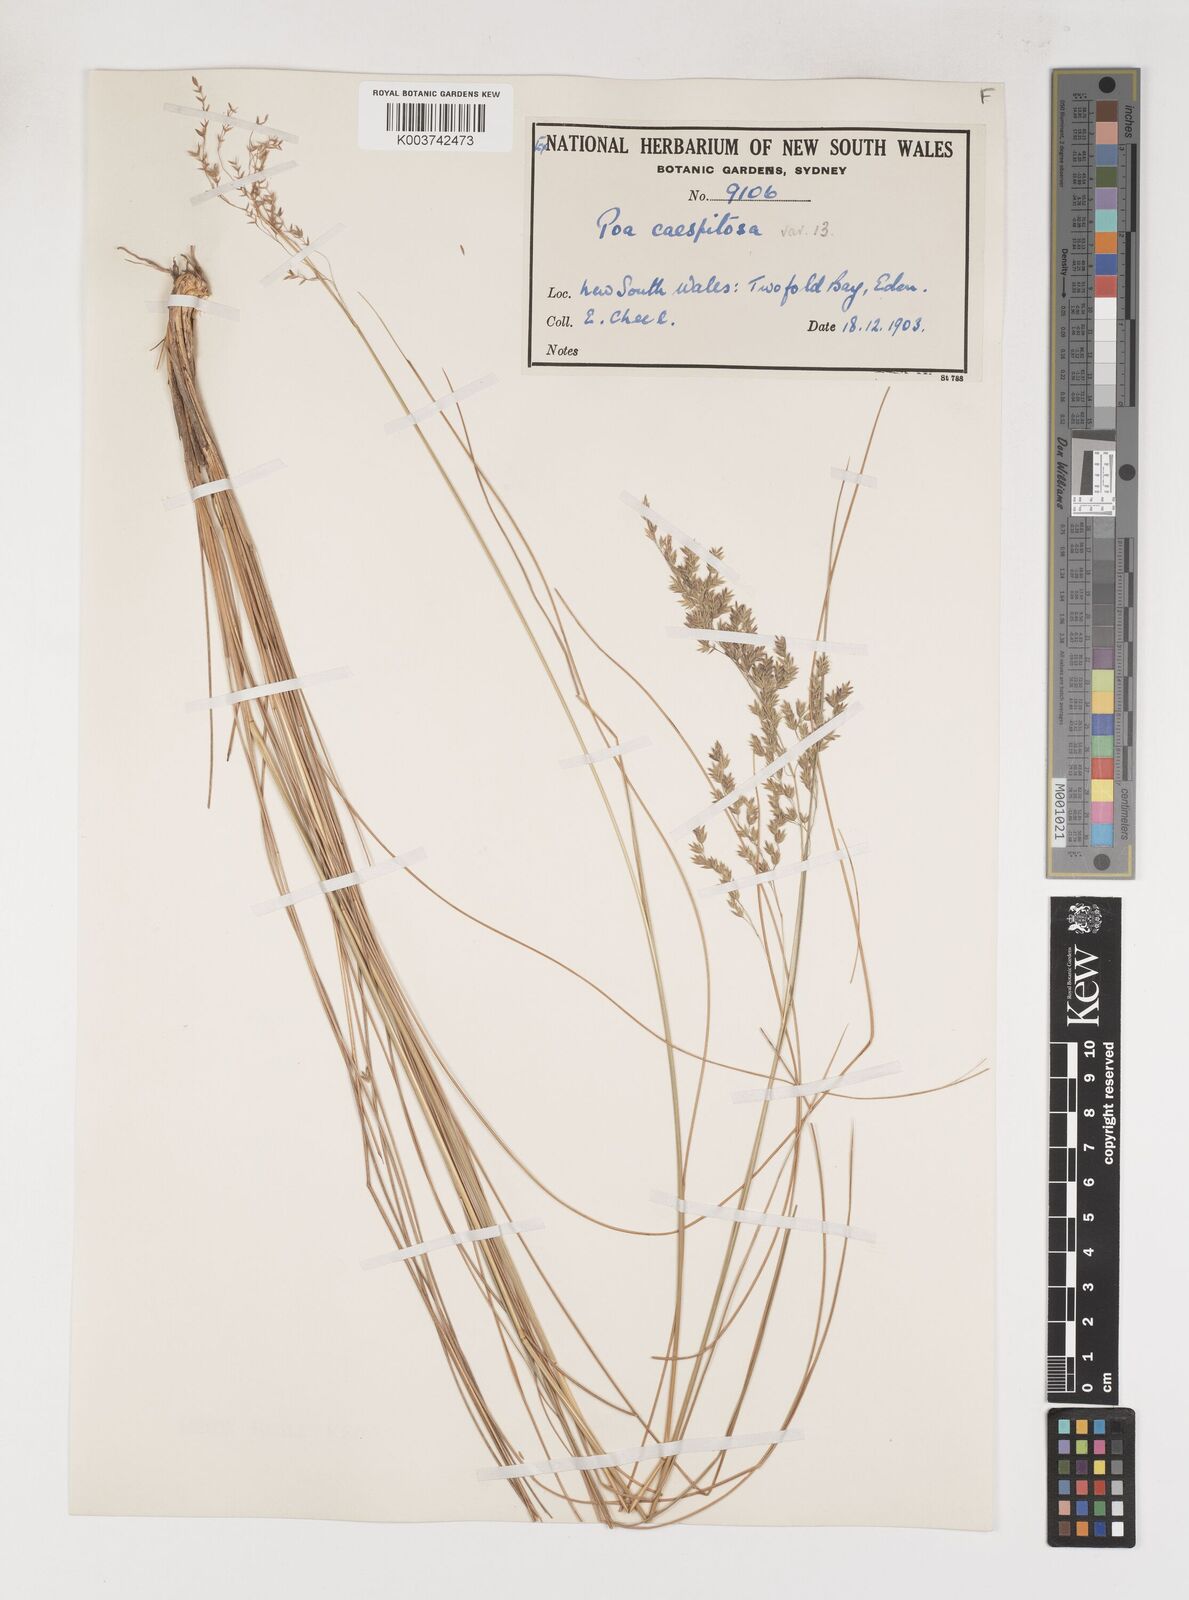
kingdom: Plantae
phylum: Tracheophyta
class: Liliopsida
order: Poales
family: Poaceae
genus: Poa
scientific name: Poa
